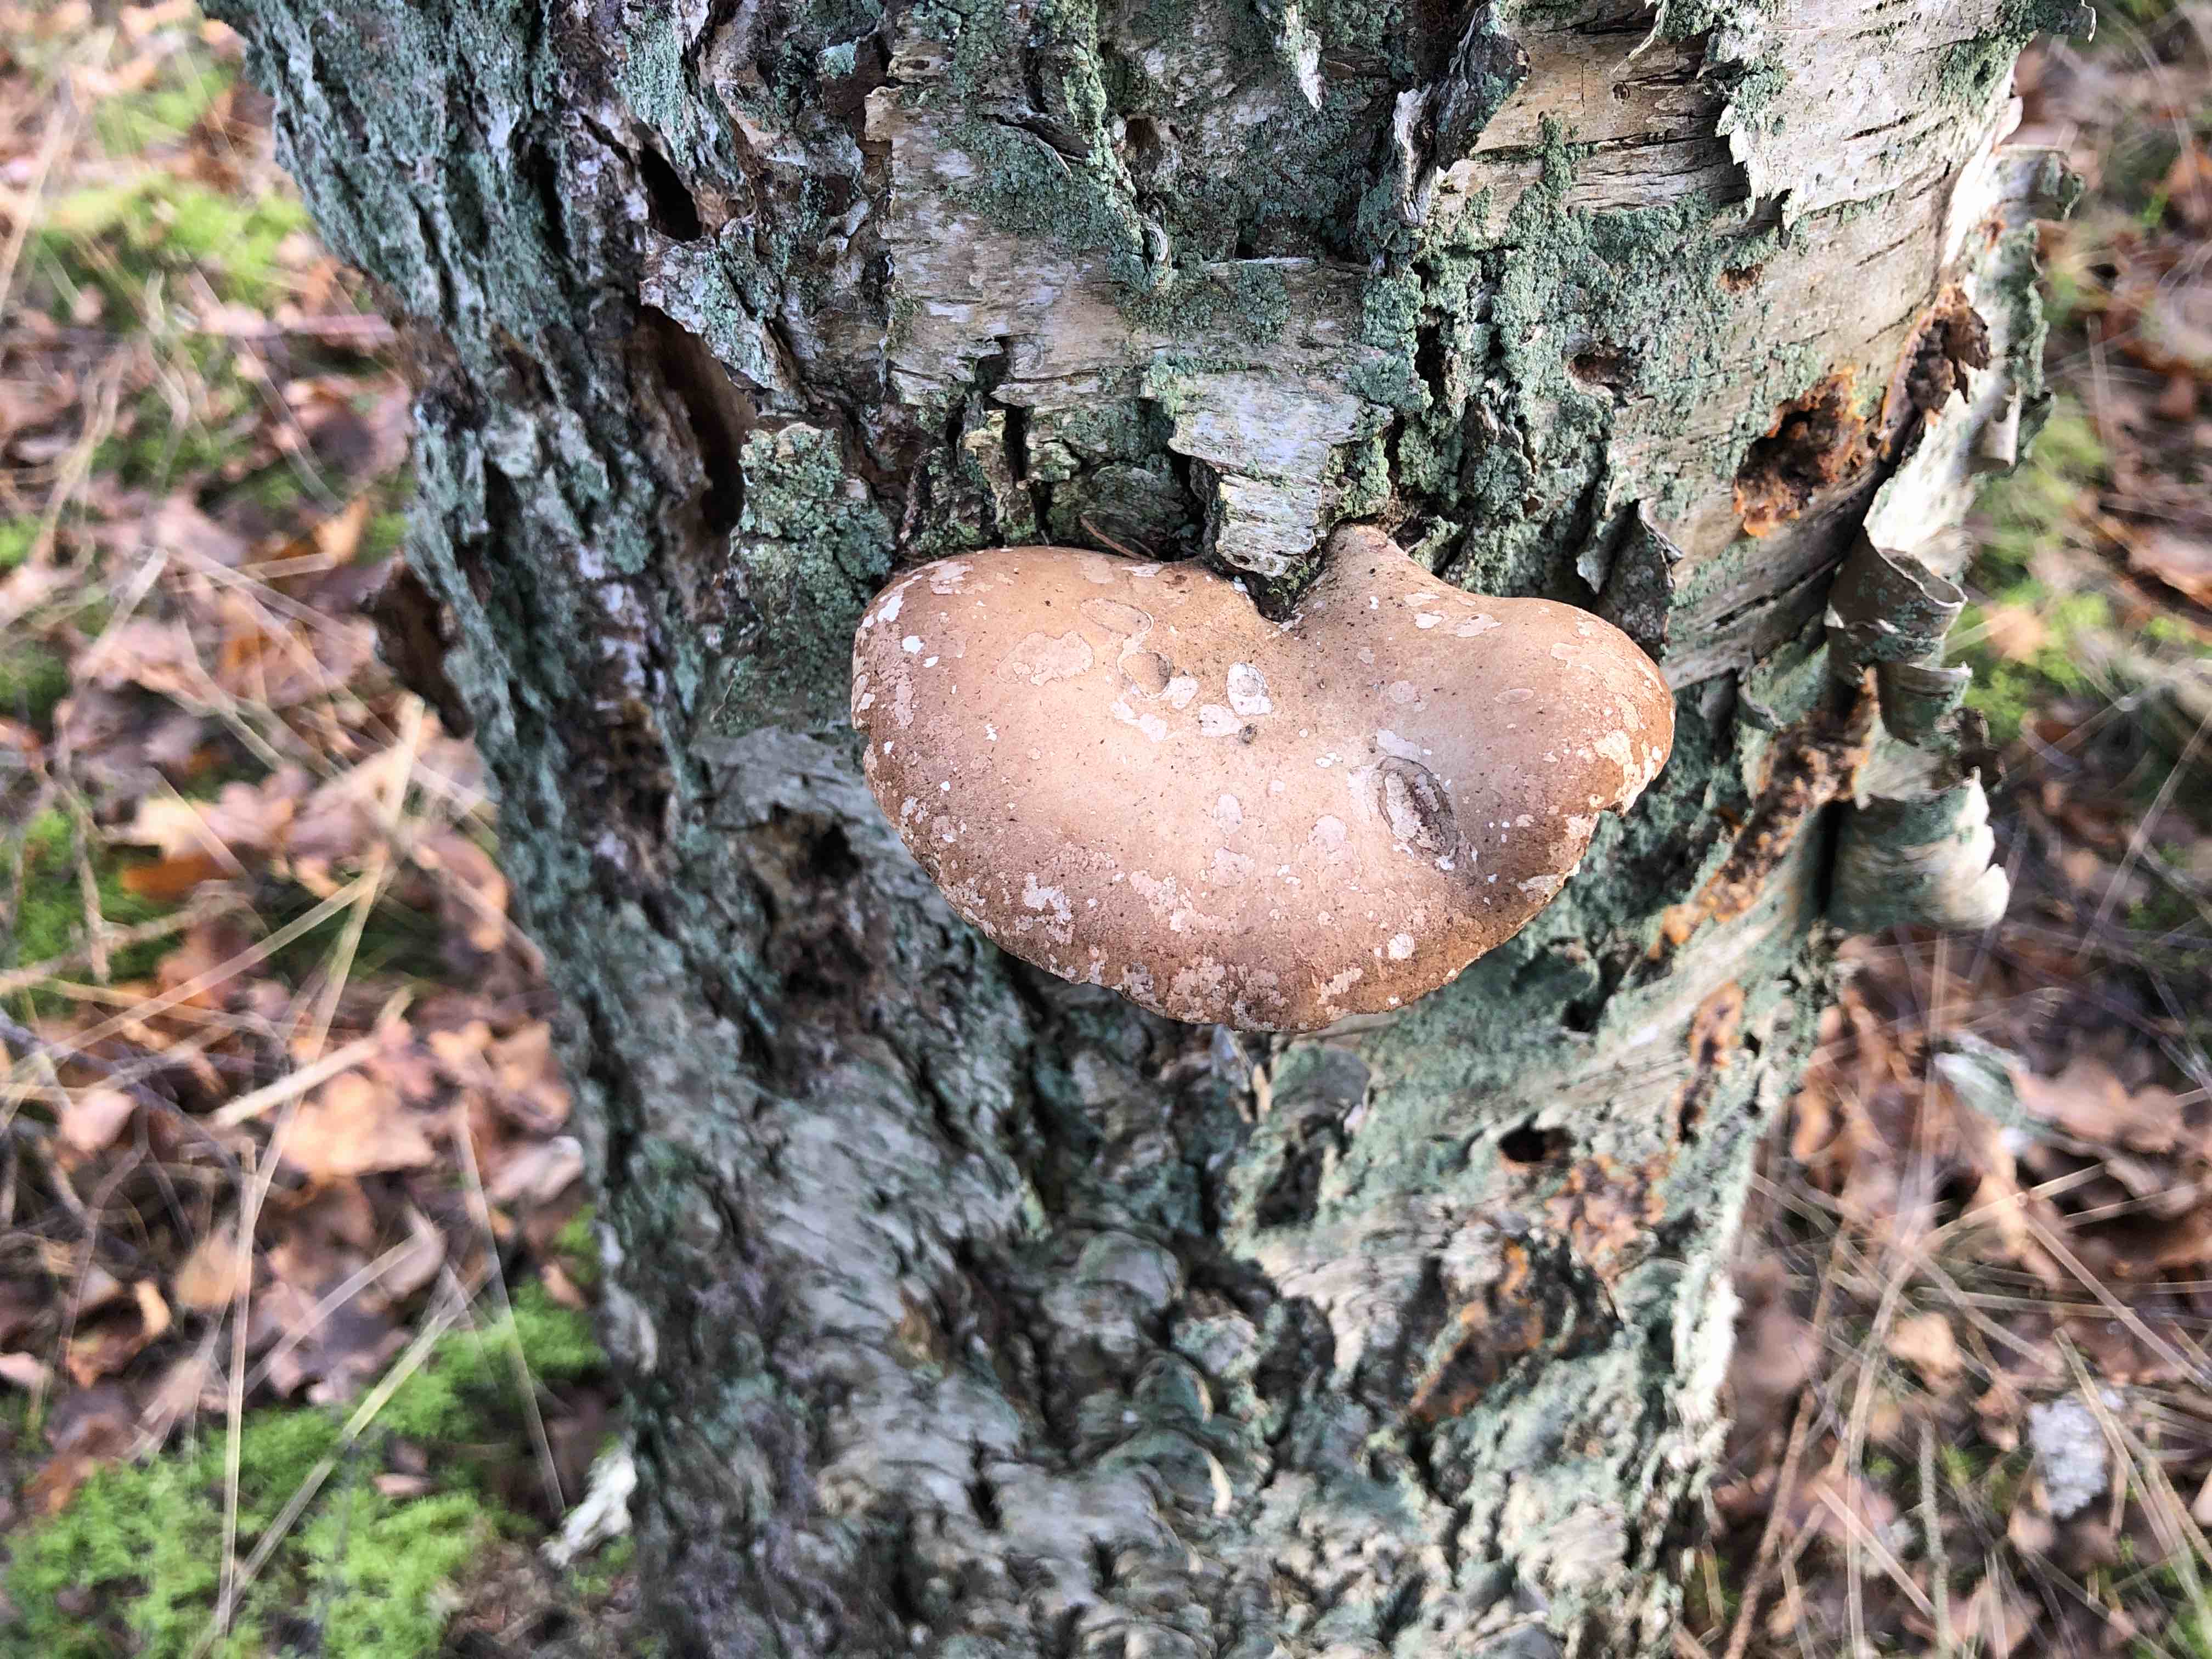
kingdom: Fungi
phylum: Basidiomycota
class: Agaricomycetes
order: Polyporales
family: Fomitopsidaceae
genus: Fomitopsis
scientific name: Fomitopsis betulina
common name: birkeporesvamp
